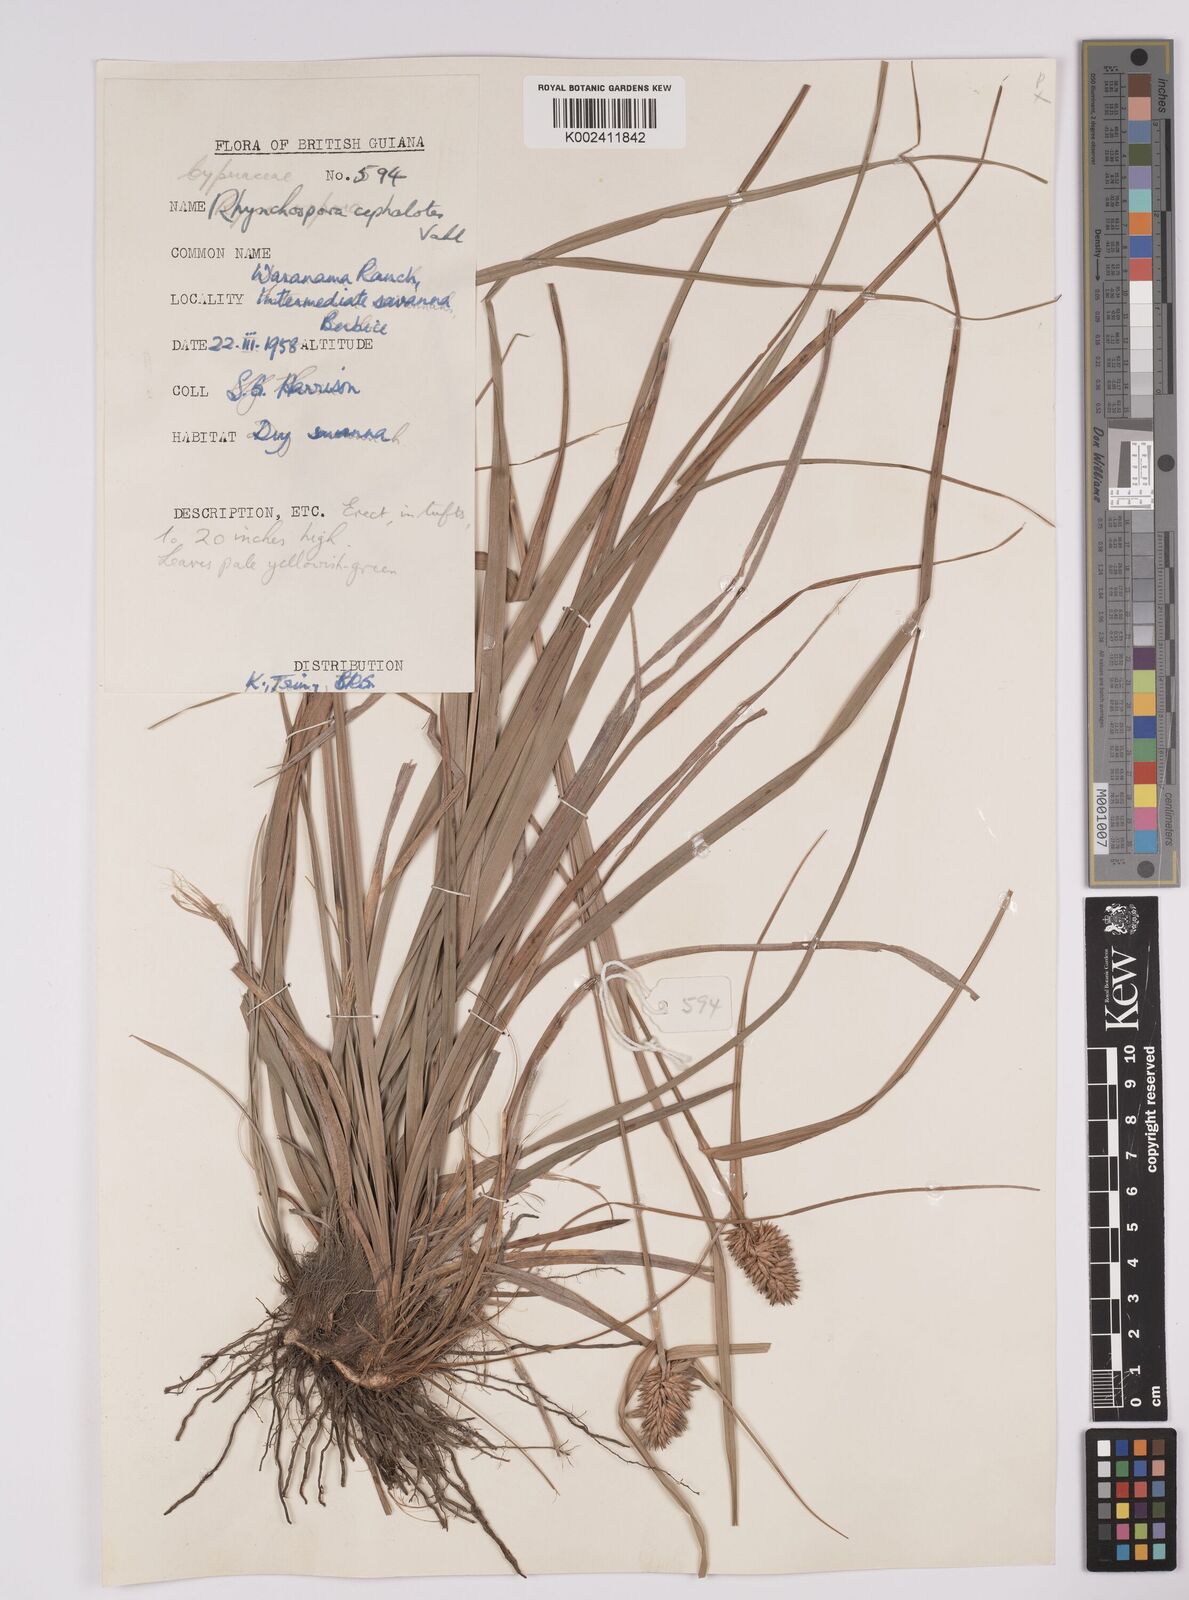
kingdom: Plantae
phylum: Tracheophyta
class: Liliopsida
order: Poales
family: Cyperaceae
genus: Rhynchospora
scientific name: Rhynchospora cephalotes
